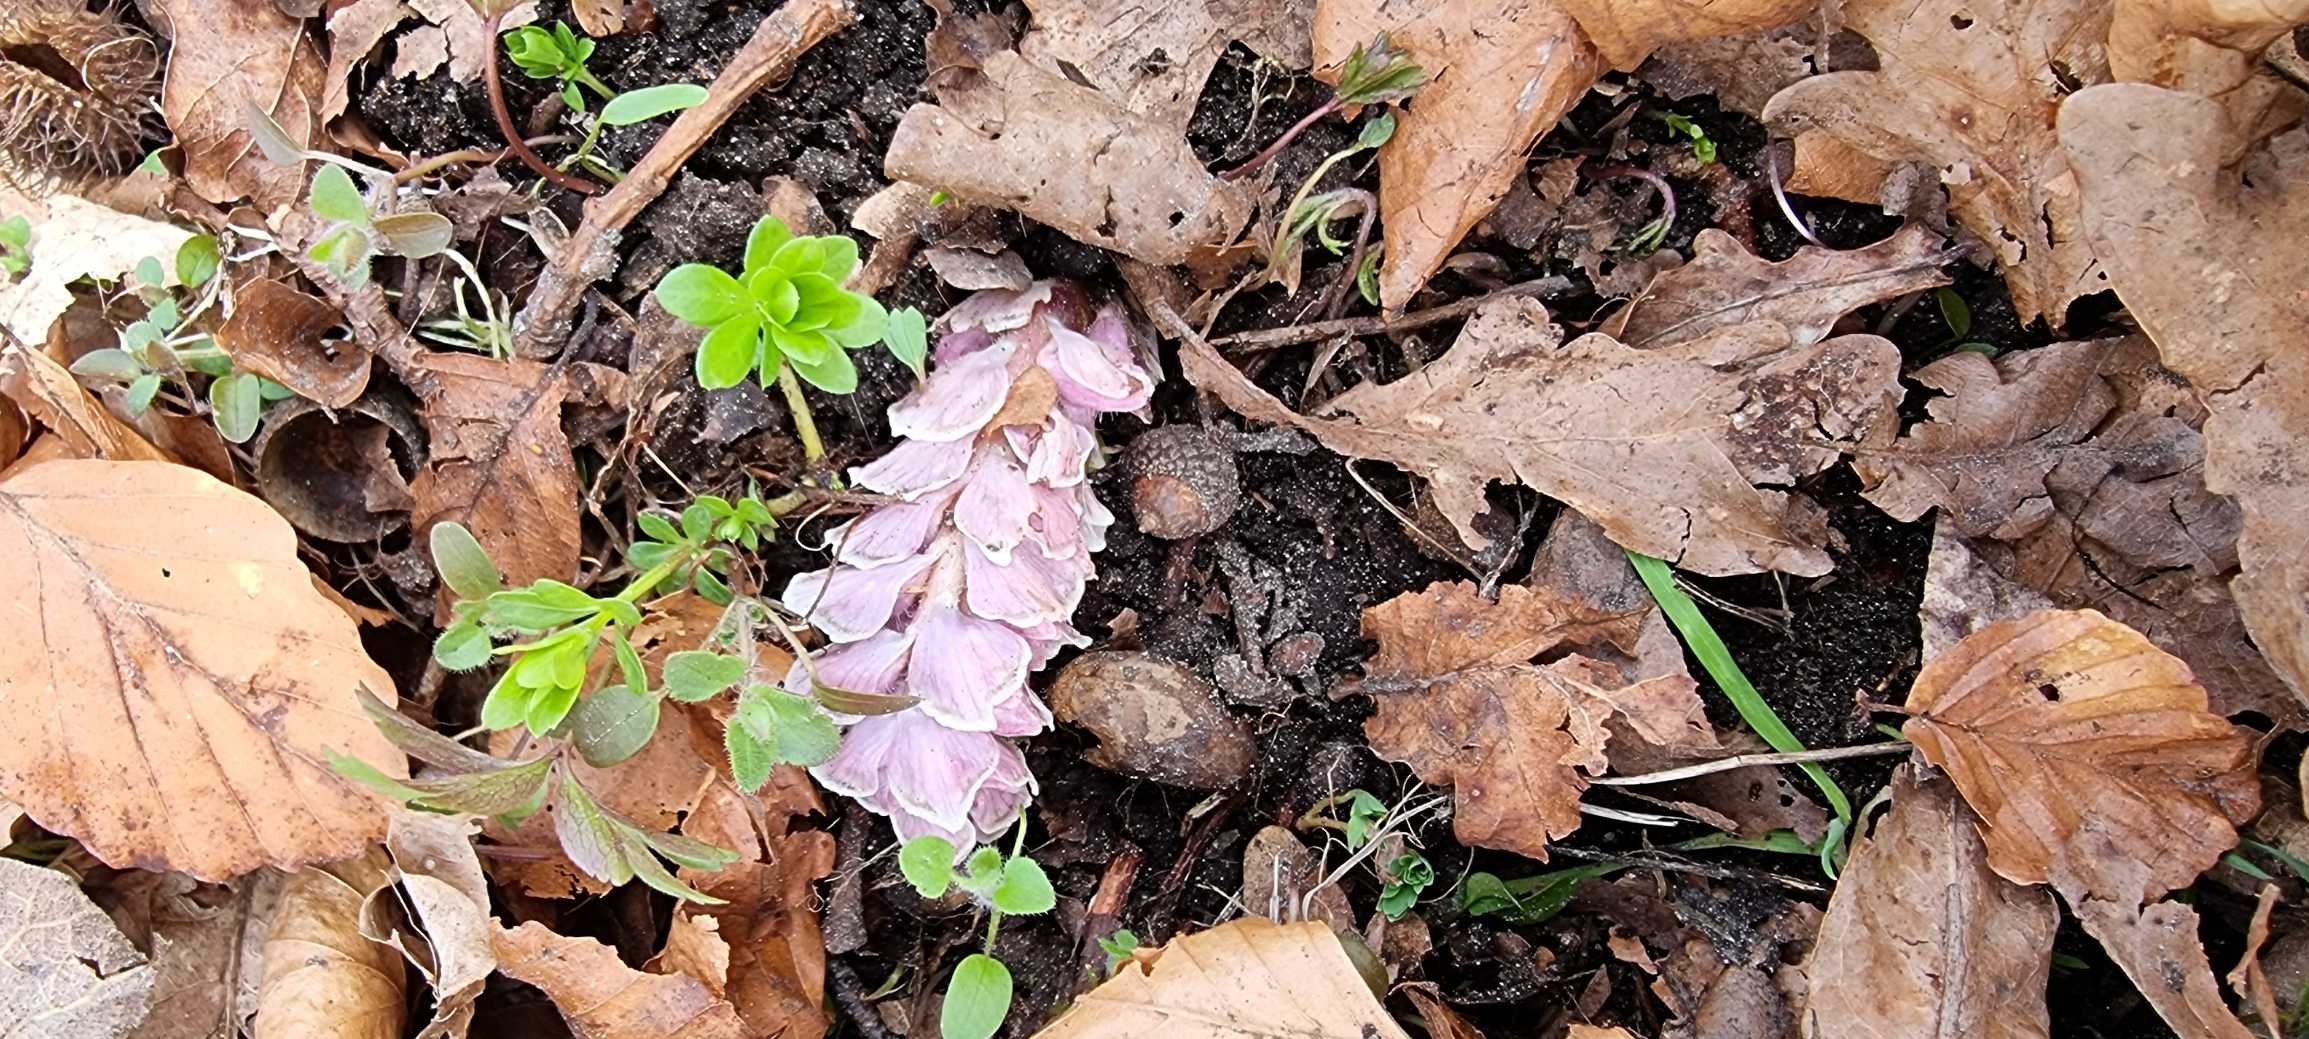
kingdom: Plantae
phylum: Tracheophyta
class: Magnoliopsida
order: Lamiales
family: Orobanchaceae
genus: Lathraea
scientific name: Lathraea squamaria
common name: Skælrod
